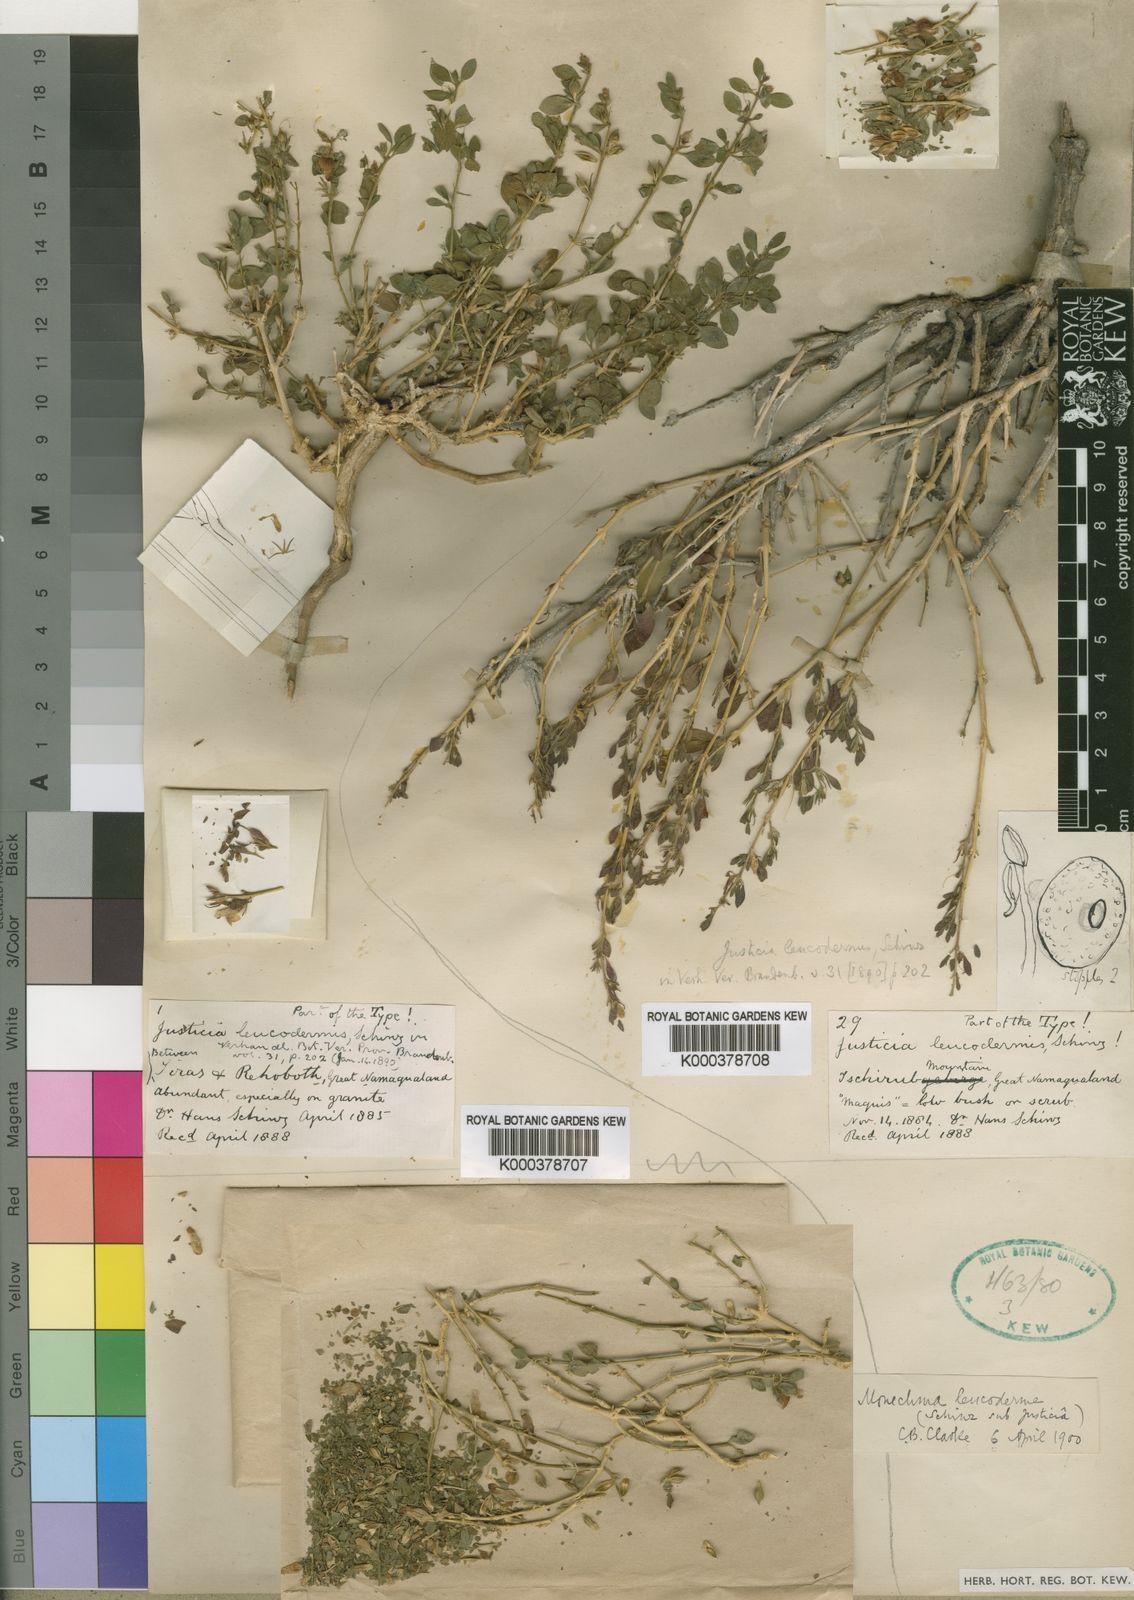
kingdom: Plantae
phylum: Tracheophyta
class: Magnoliopsida
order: Lamiales
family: Acanthaceae
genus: Monechma
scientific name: Monechma leucoderme
